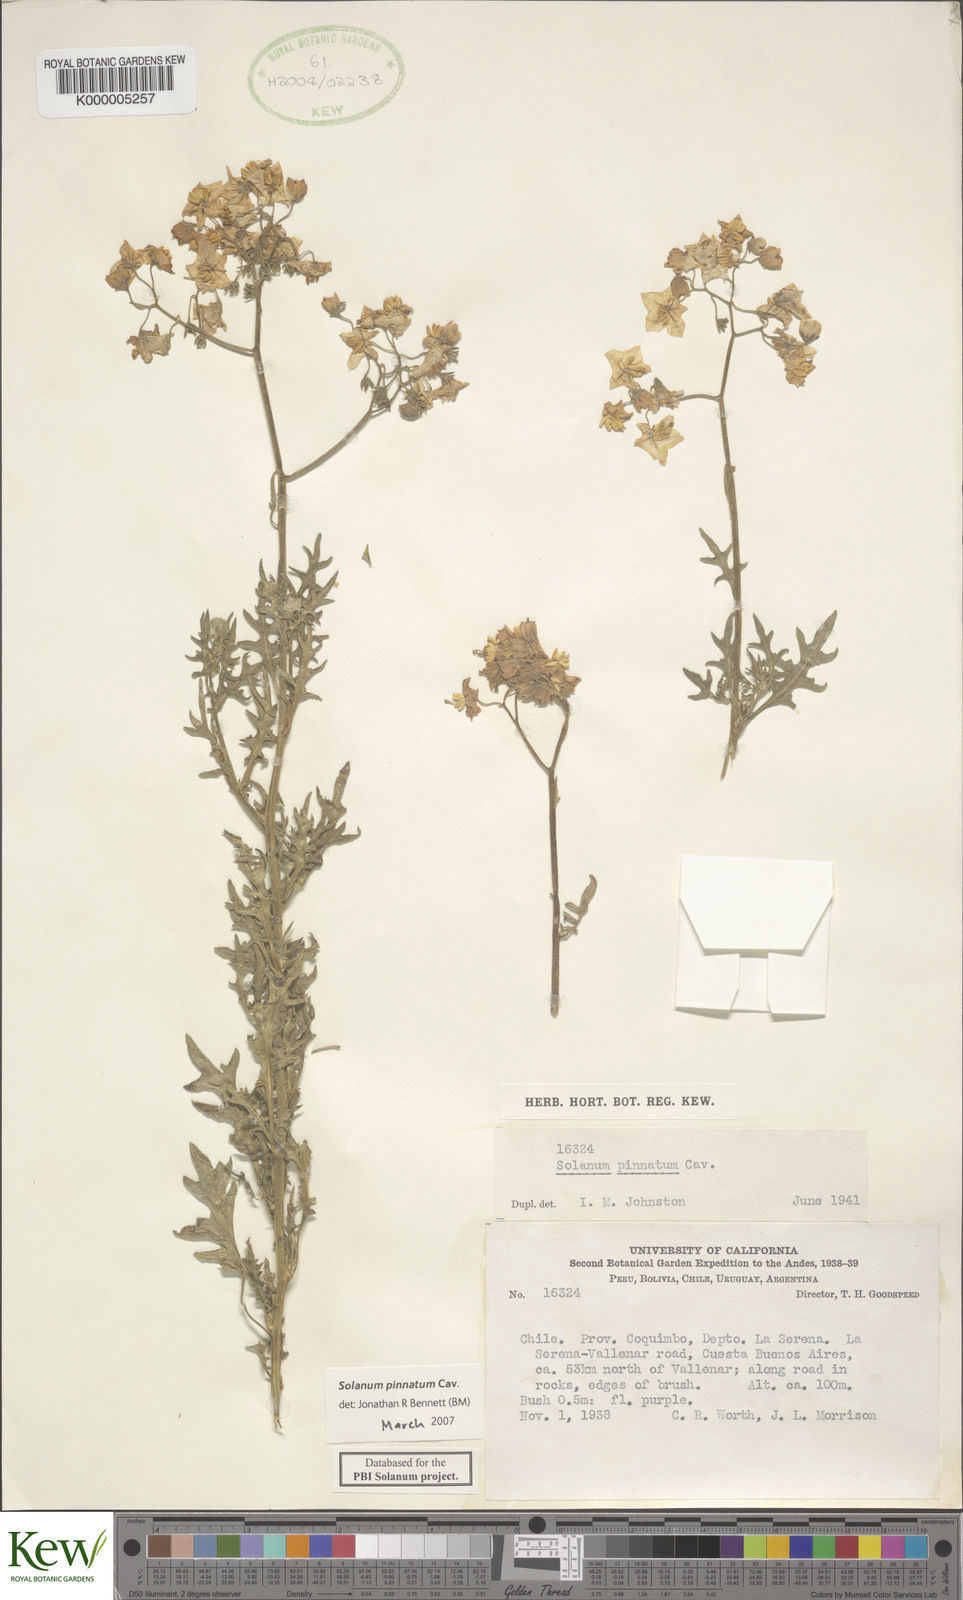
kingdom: Plantae
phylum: Tracheophyta
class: Magnoliopsida
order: Solanales
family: Solanaceae
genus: Solanum
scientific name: Solanum pinnatum
